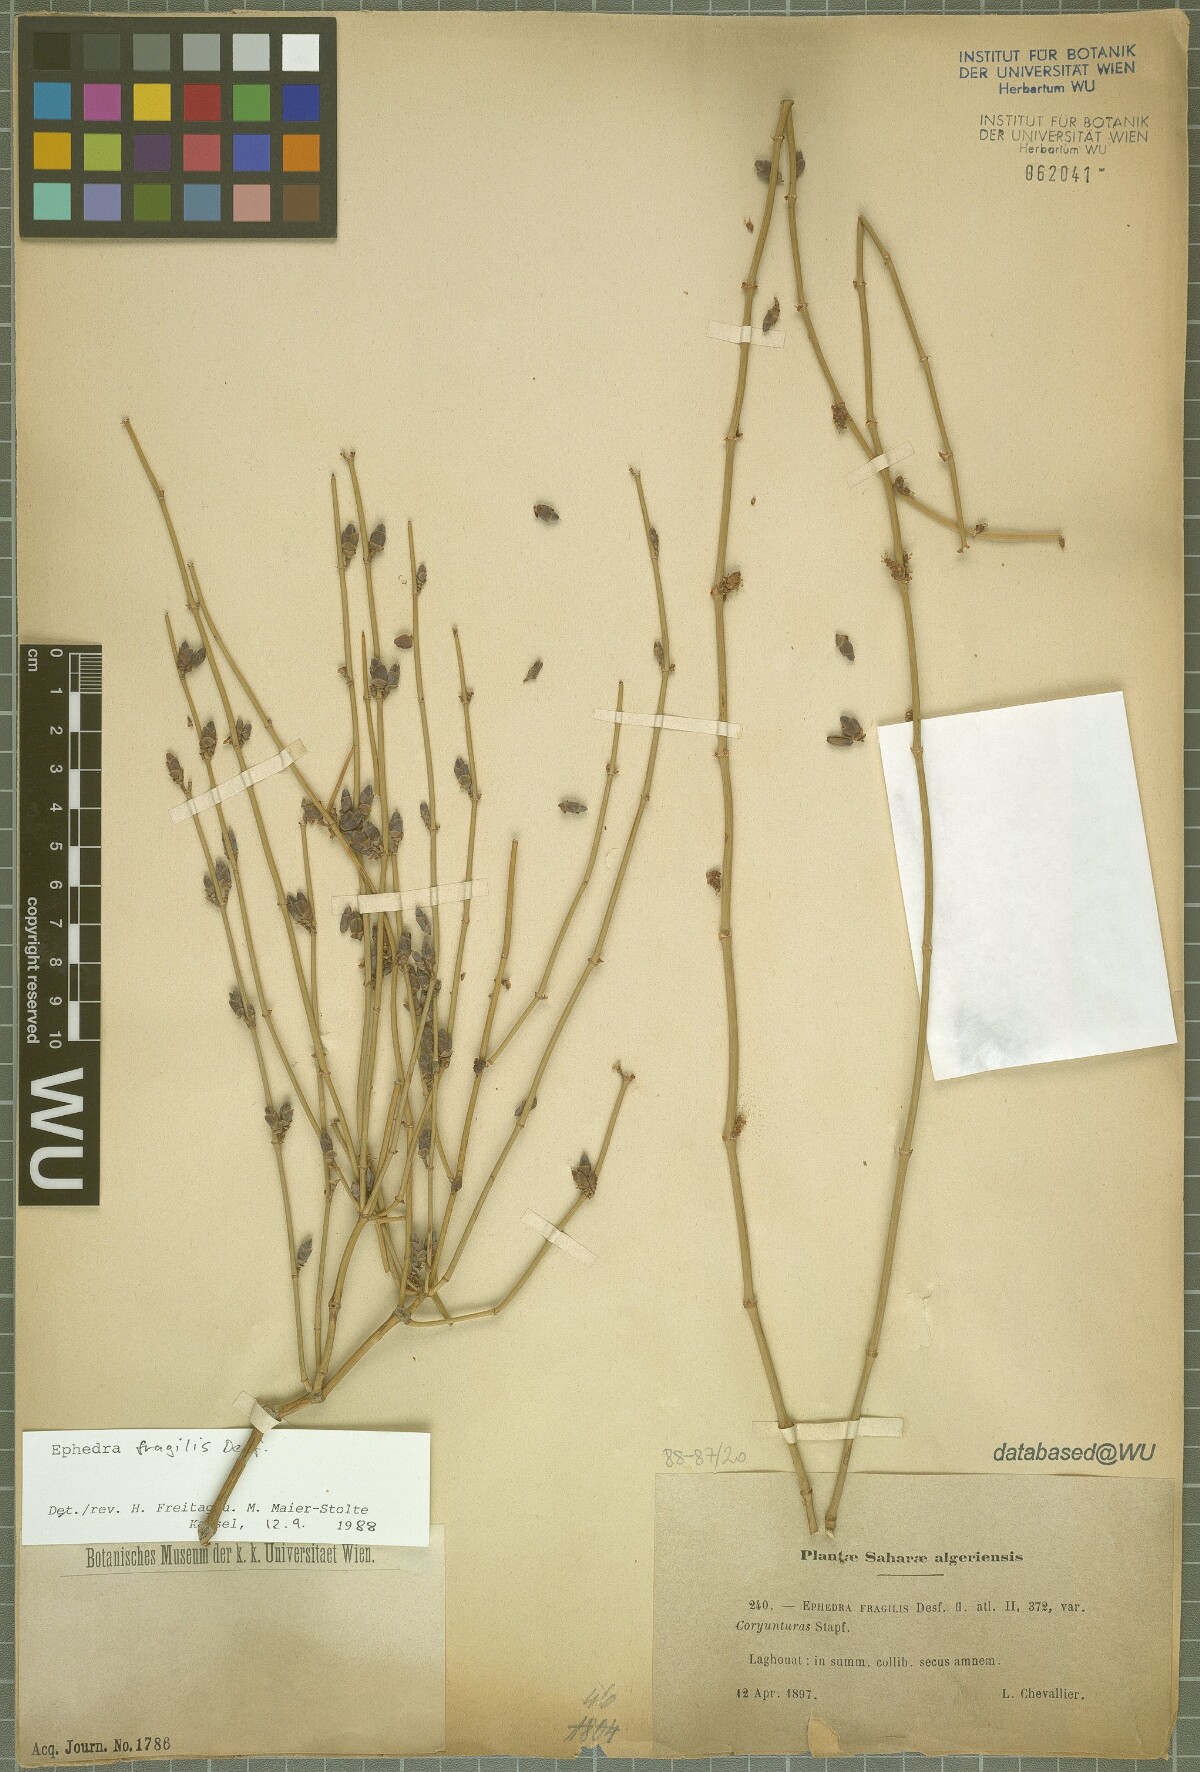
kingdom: Plantae
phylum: Tracheophyta
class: Gnetopsida
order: Ephedrales
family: Ephedraceae
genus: Ephedra
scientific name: Ephedra fragilis
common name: Joint pine
